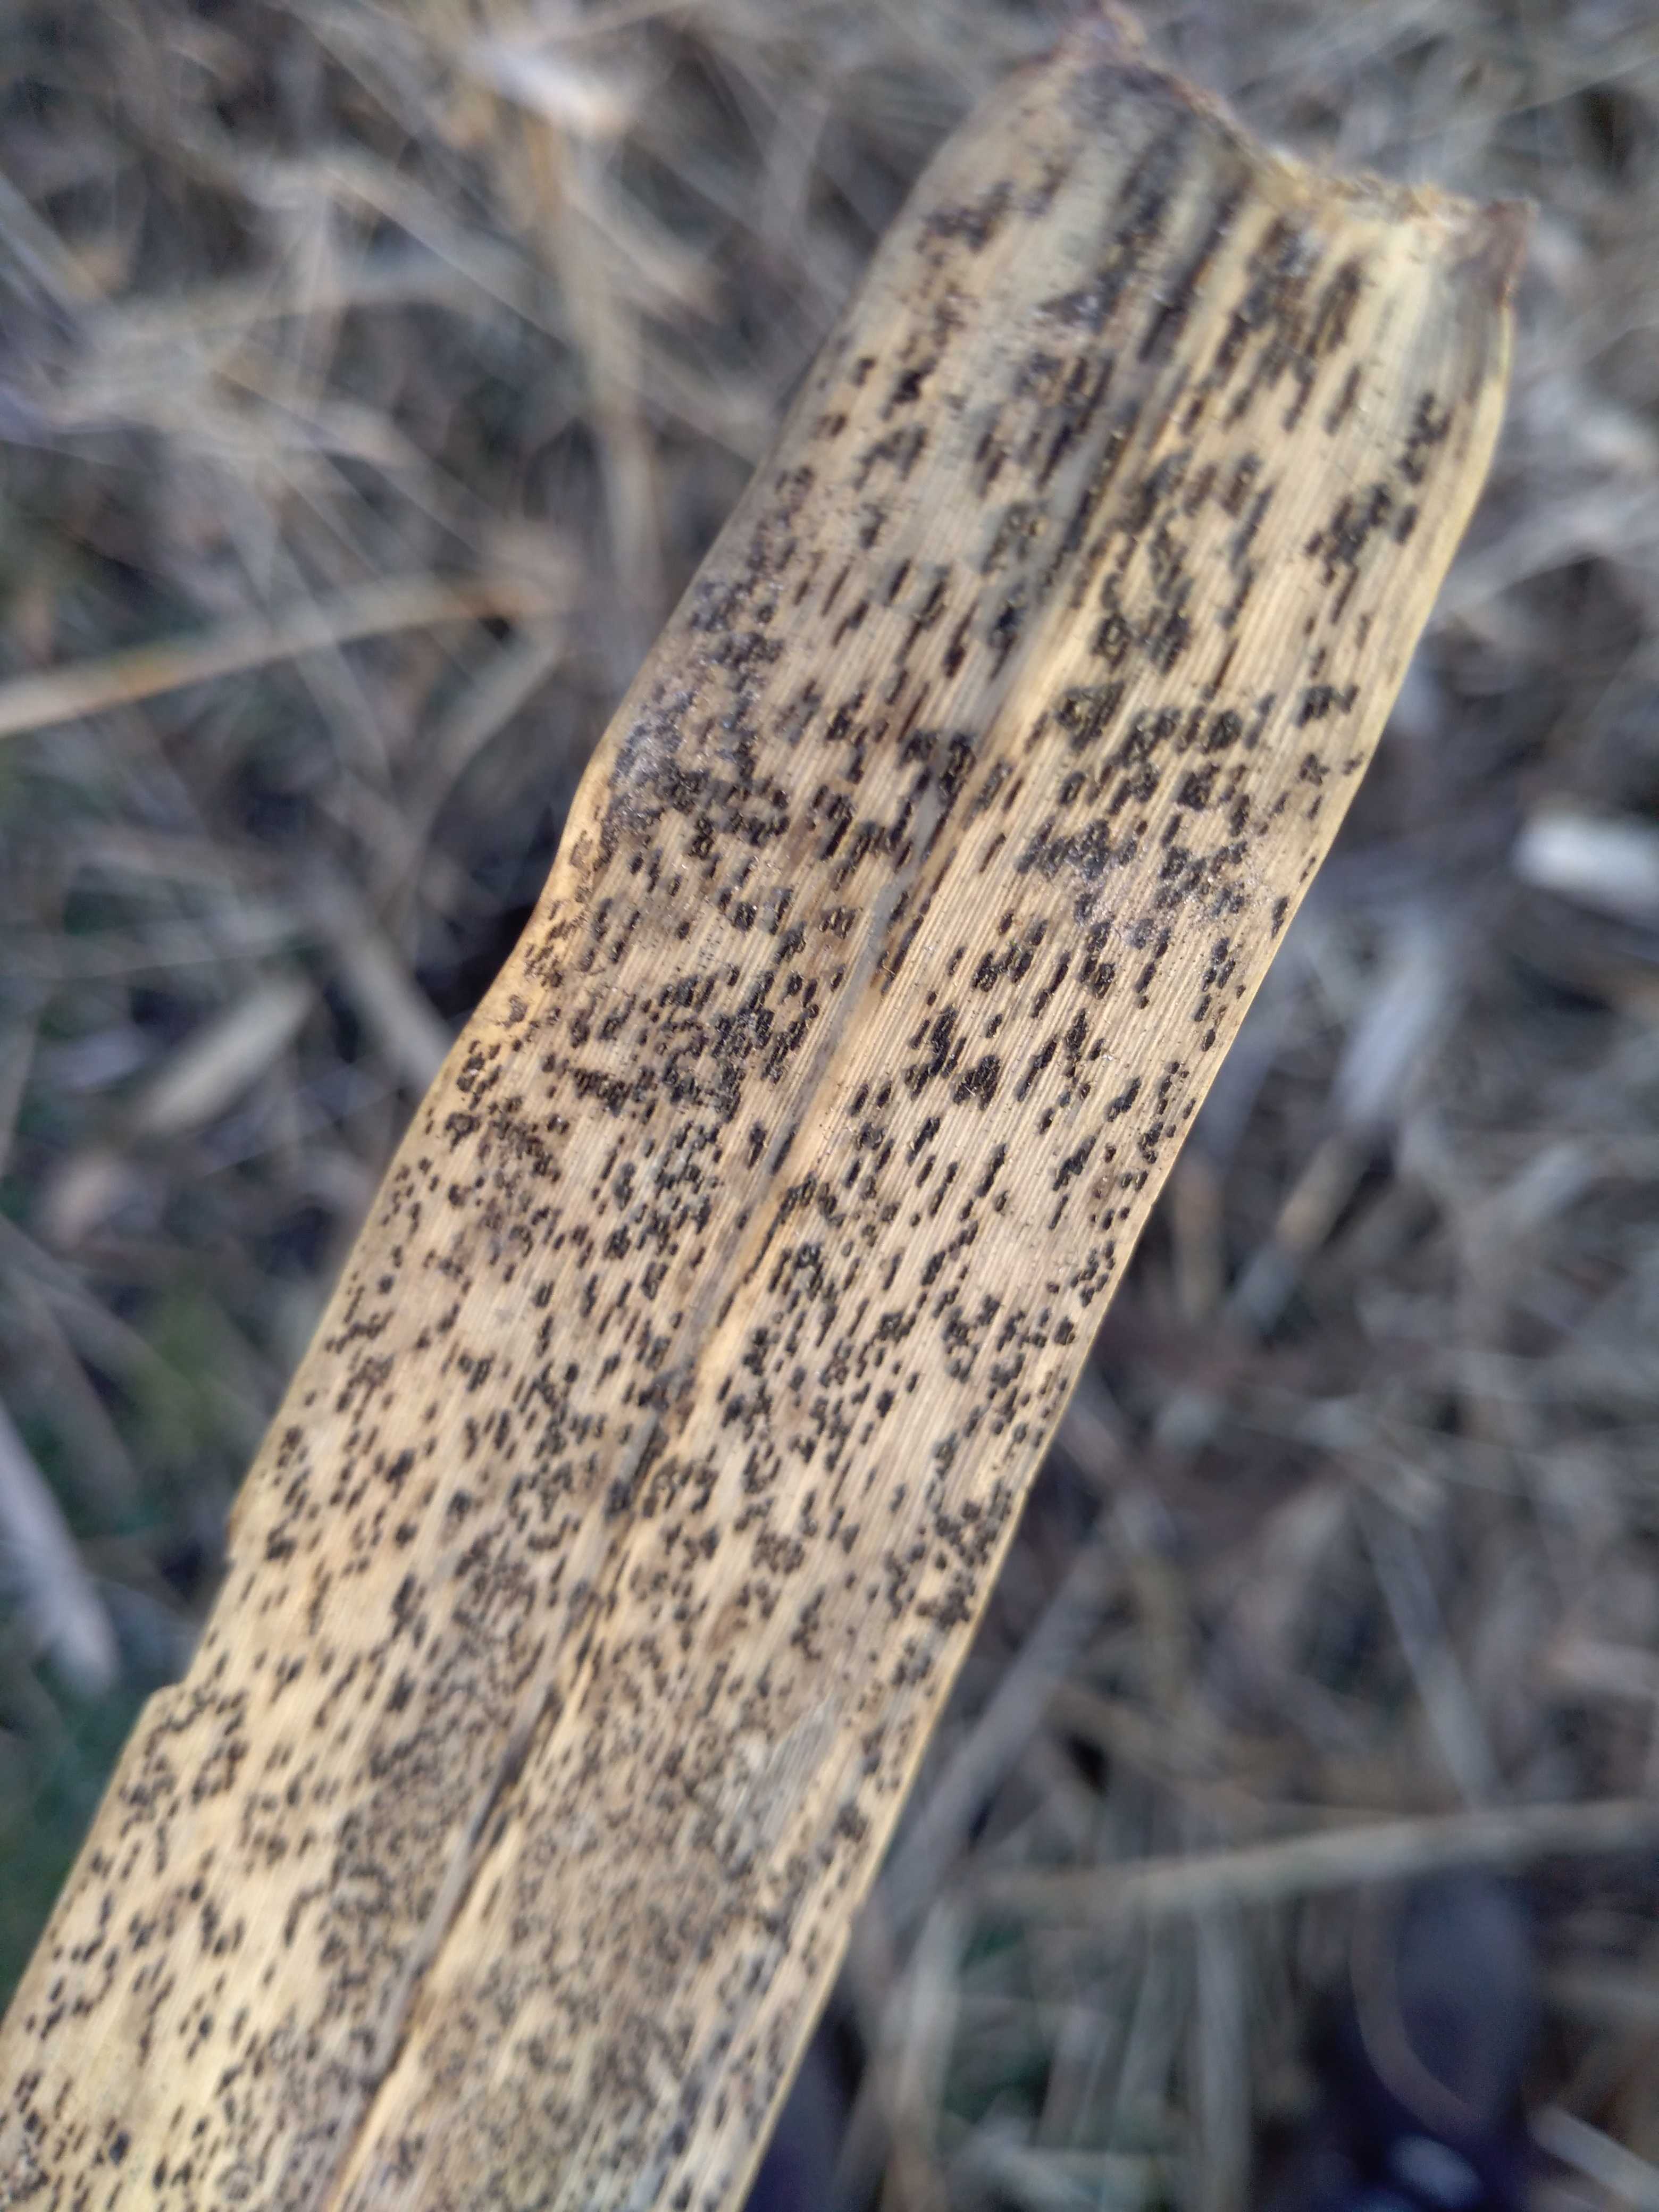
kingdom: Fungi
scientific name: Fungi
